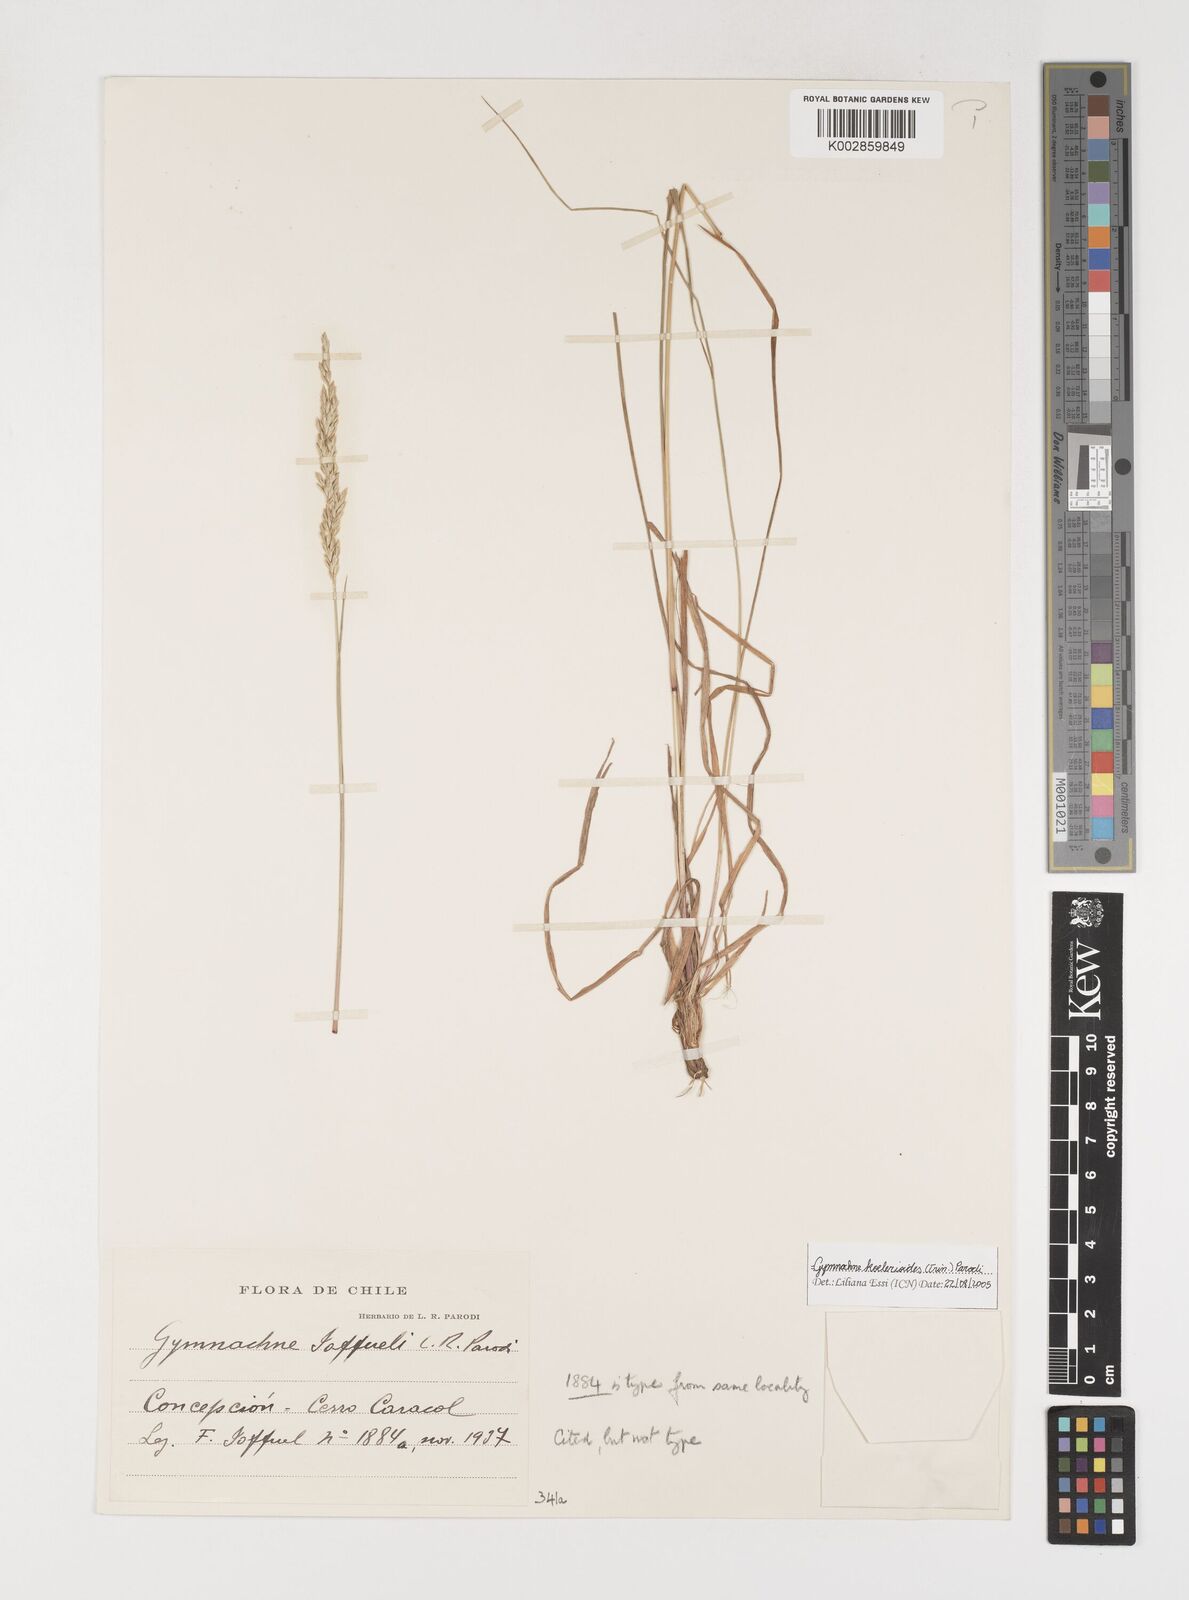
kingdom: Plantae
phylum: Tracheophyta
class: Liliopsida
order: Poales
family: Poaceae
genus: Rhombolytrum
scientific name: Rhombolytrum
